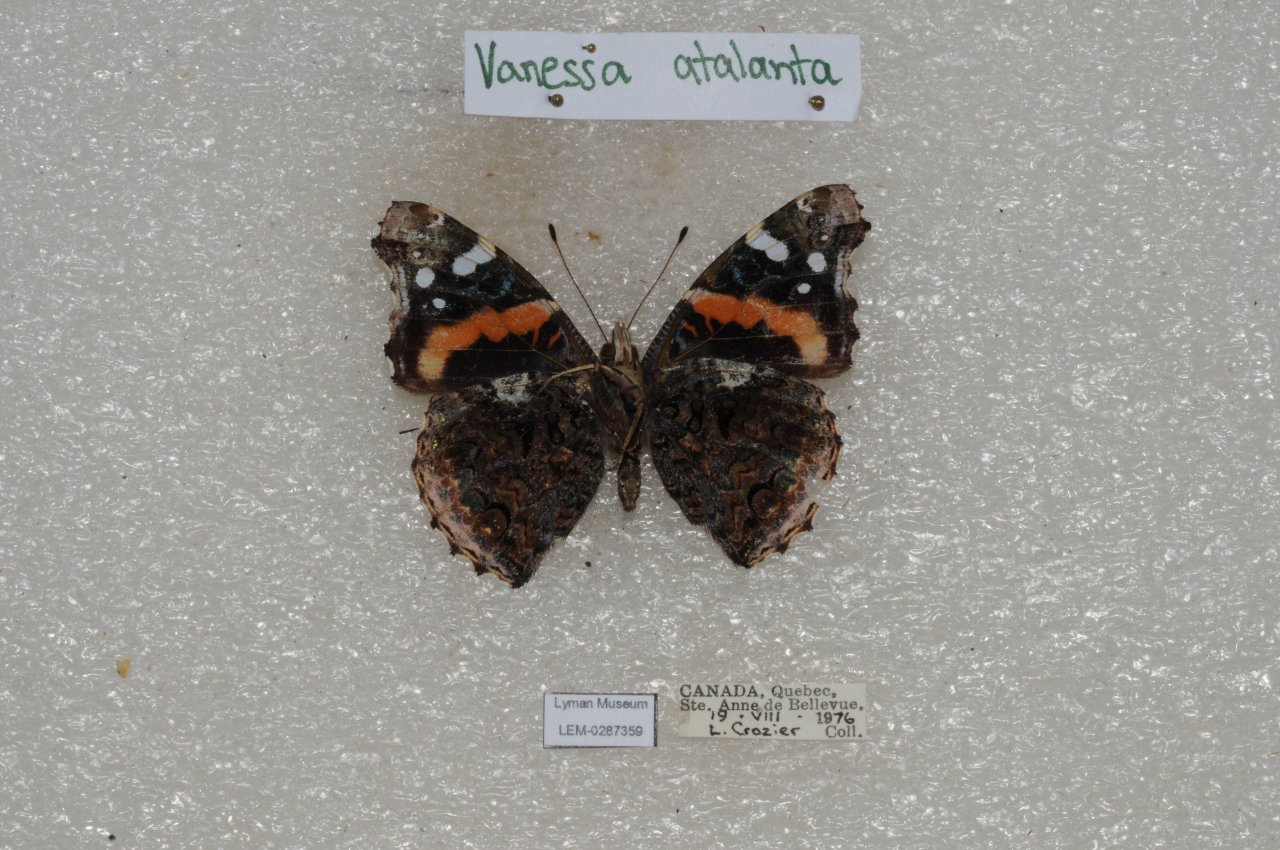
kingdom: Animalia
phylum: Arthropoda
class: Insecta
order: Lepidoptera
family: Nymphalidae
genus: Vanessa
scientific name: Vanessa atalanta
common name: Red Admiral
